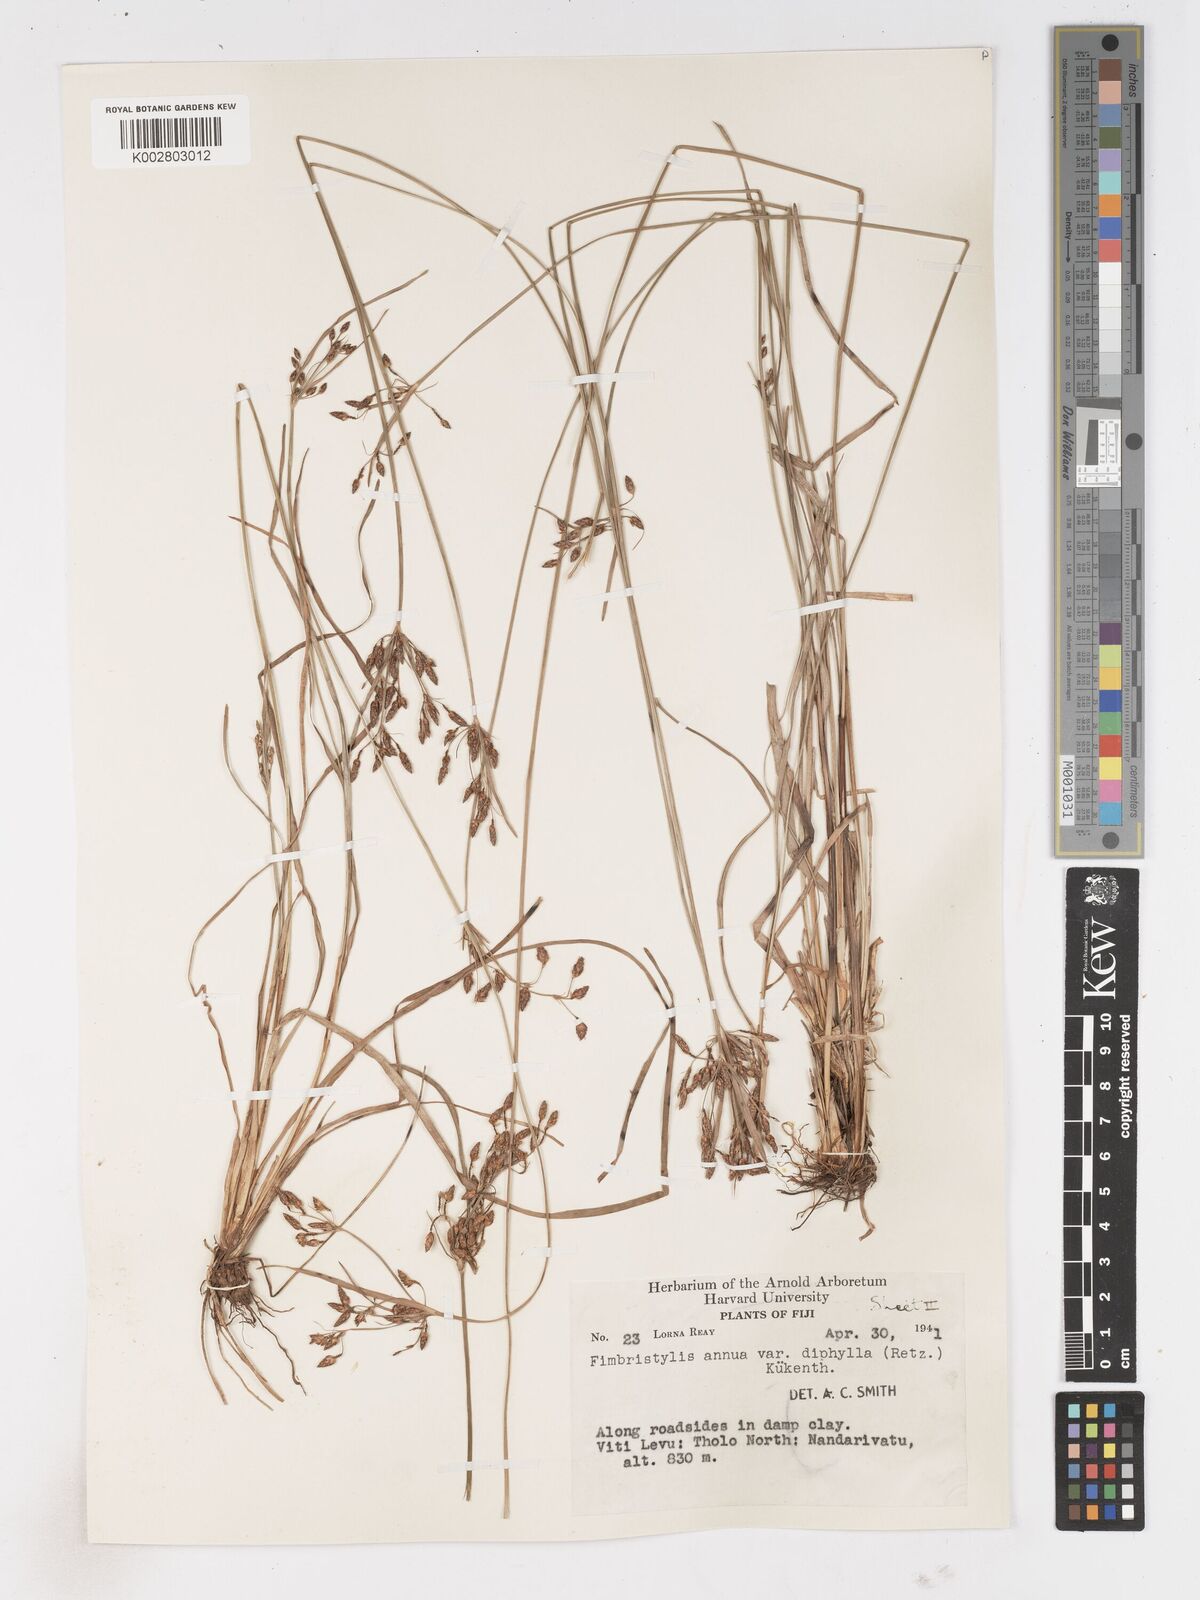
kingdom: Plantae
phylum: Tracheophyta
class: Liliopsida
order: Poales
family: Cyperaceae
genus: Fimbristylis
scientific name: Fimbristylis dichotoma
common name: Forked fimbry
